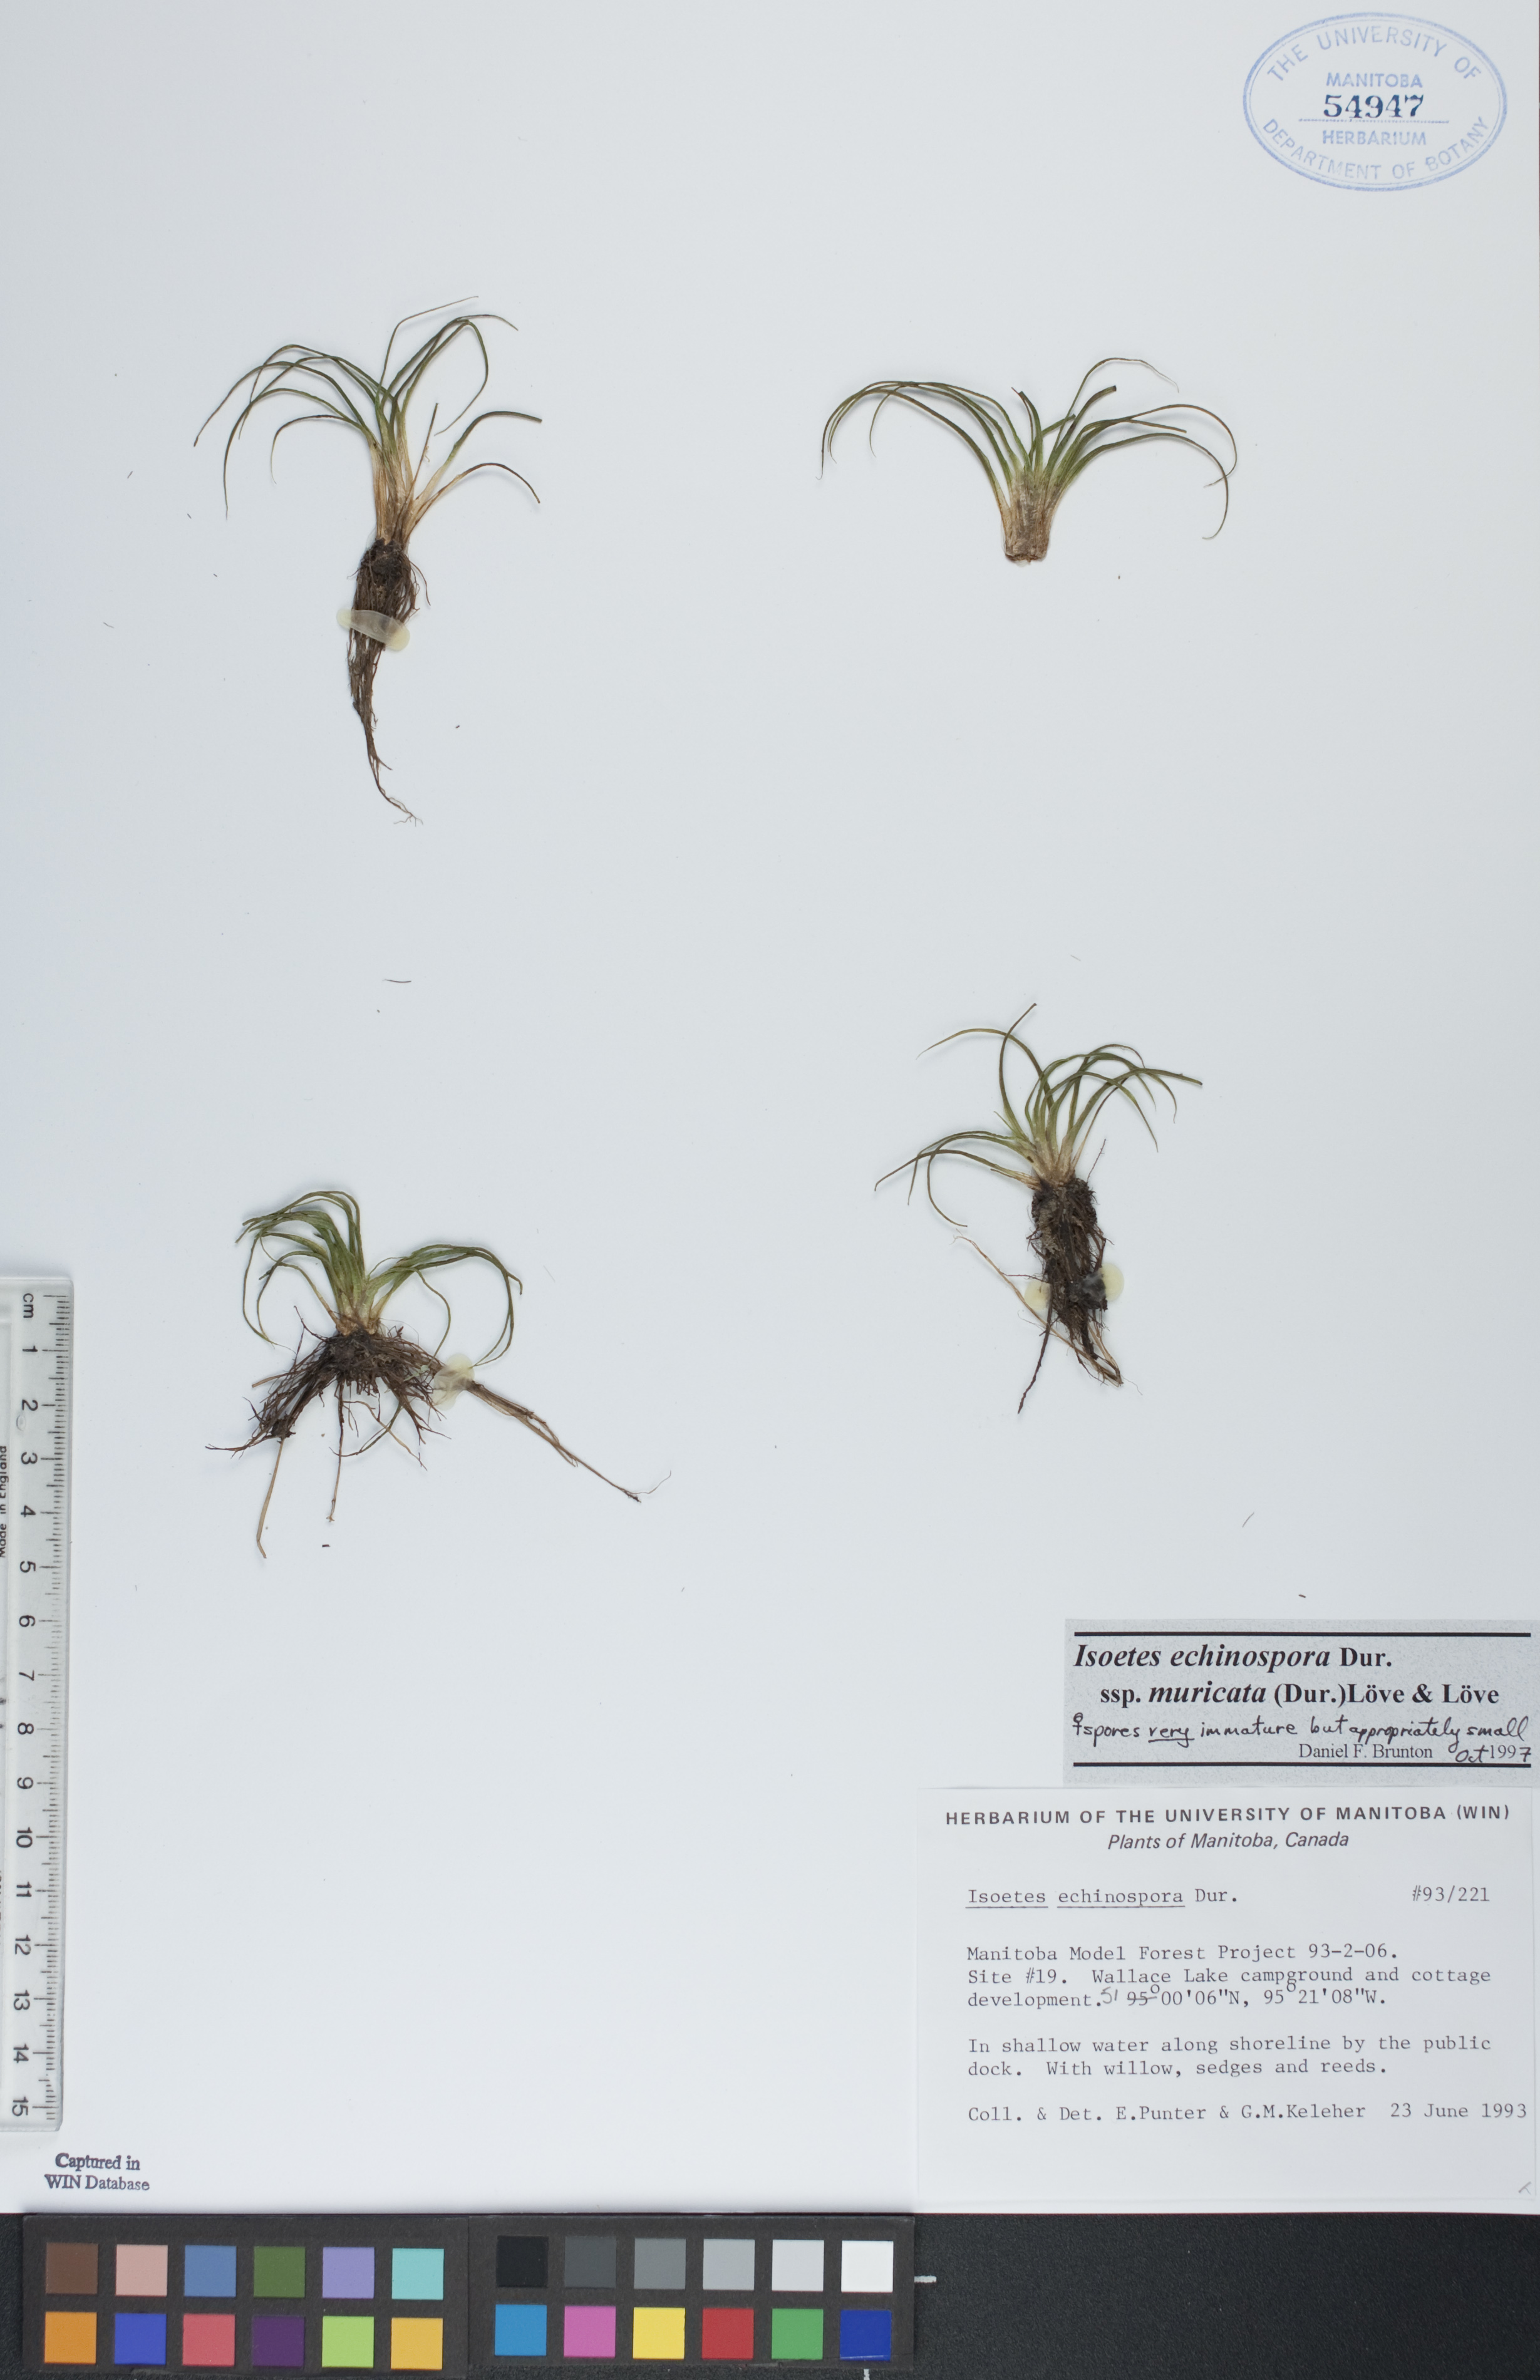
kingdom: Plantae
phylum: Tracheophyta
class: Lycopodiopsida
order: Isoetales
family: Isoetaceae
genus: Isoetes
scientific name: Isoetes echinospora
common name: Spring quillwort
